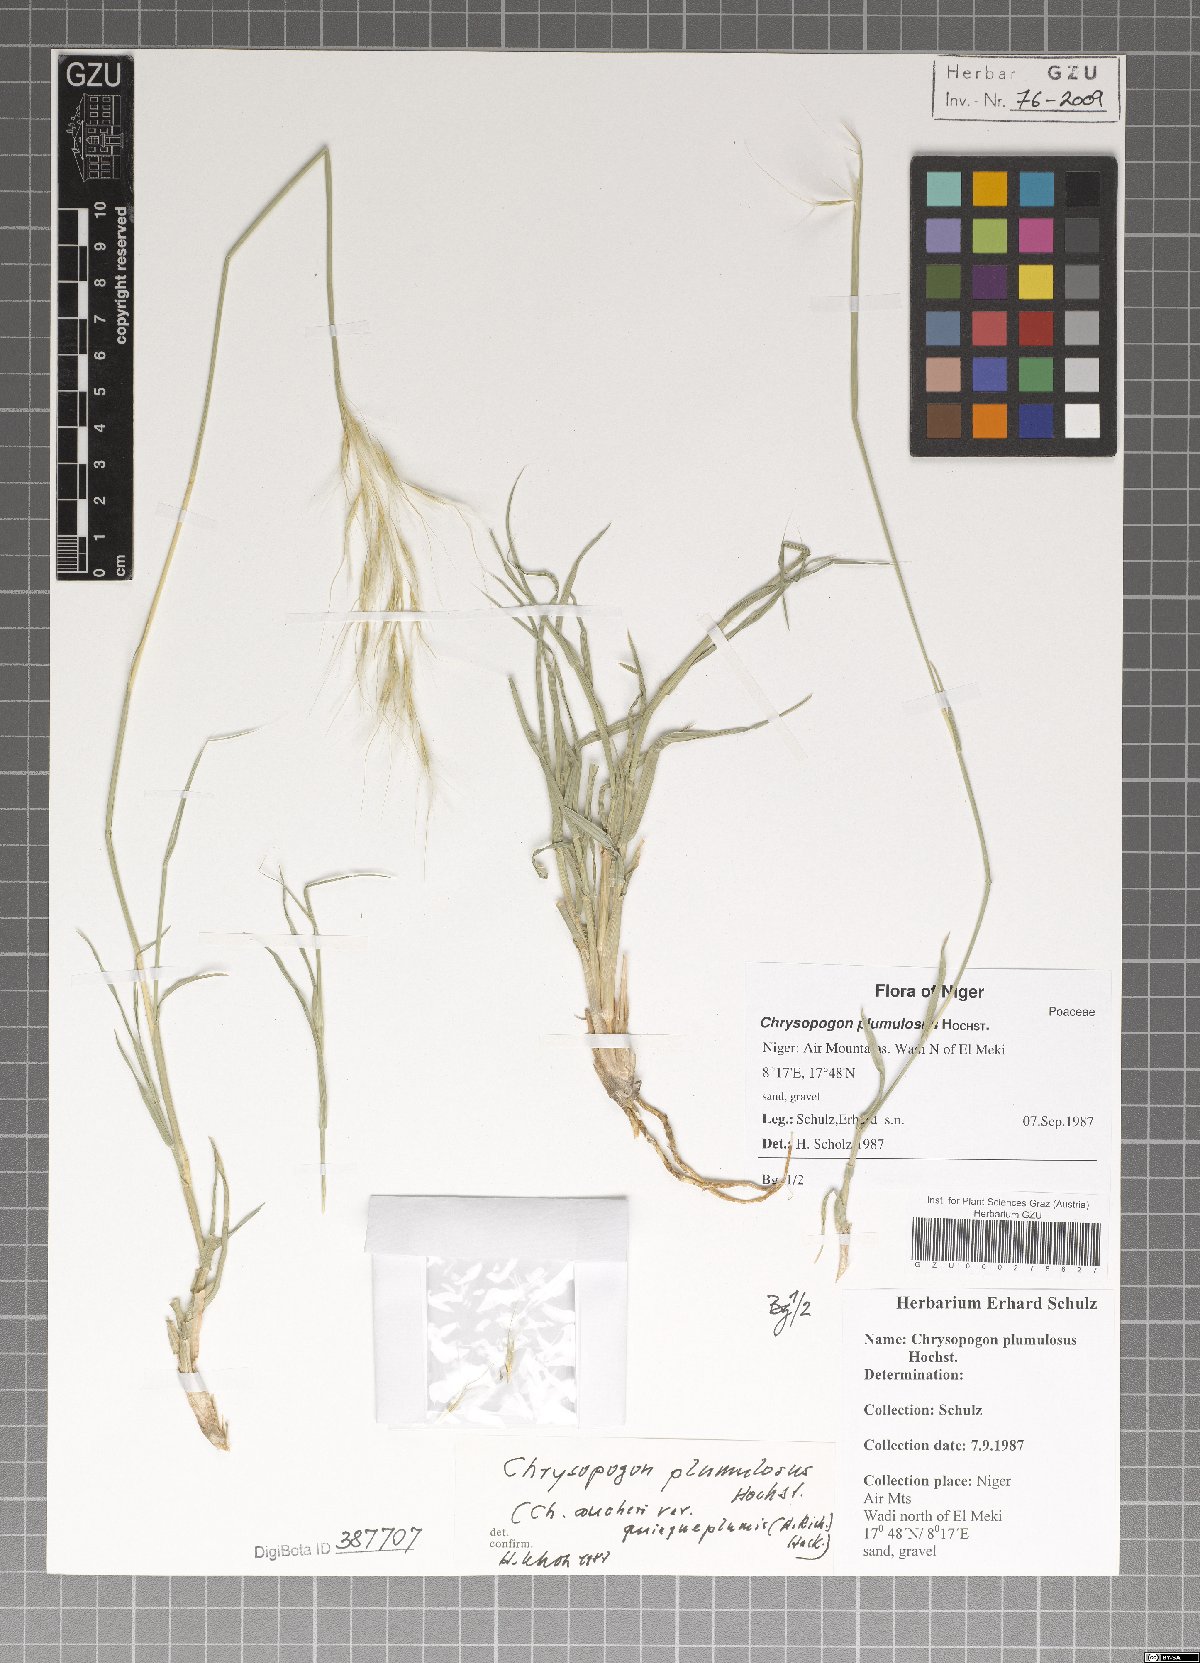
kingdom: Plantae
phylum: Tracheophyta
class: Liliopsida
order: Poales
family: Poaceae
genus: Chrysopogon
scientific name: Chrysopogon plumulosus
